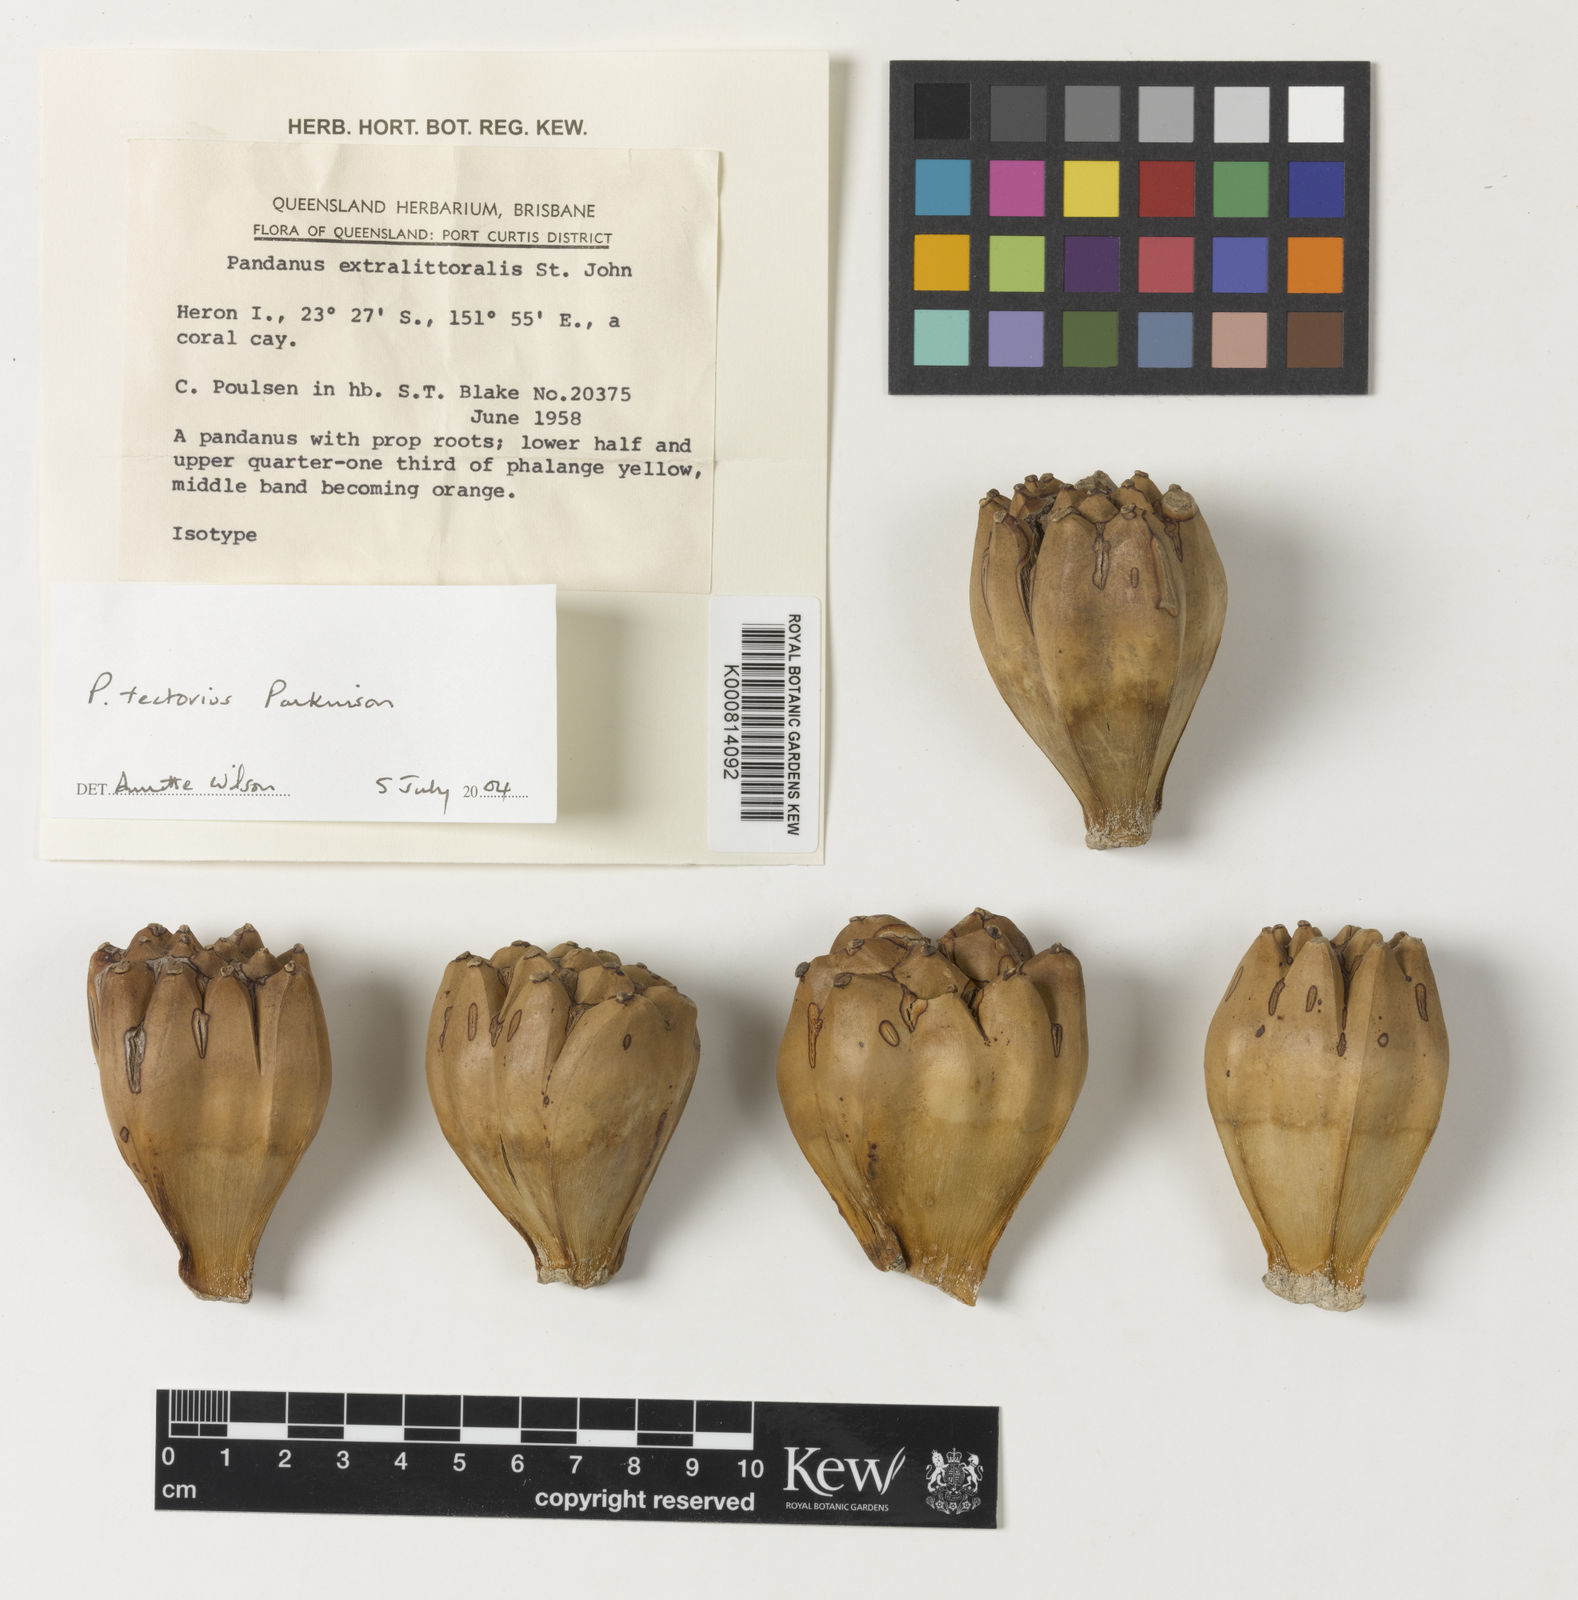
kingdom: Plantae
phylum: Tracheophyta
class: Liliopsida
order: Pandanales
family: Pandanaceae
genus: Pandanus
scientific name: Pandanus
